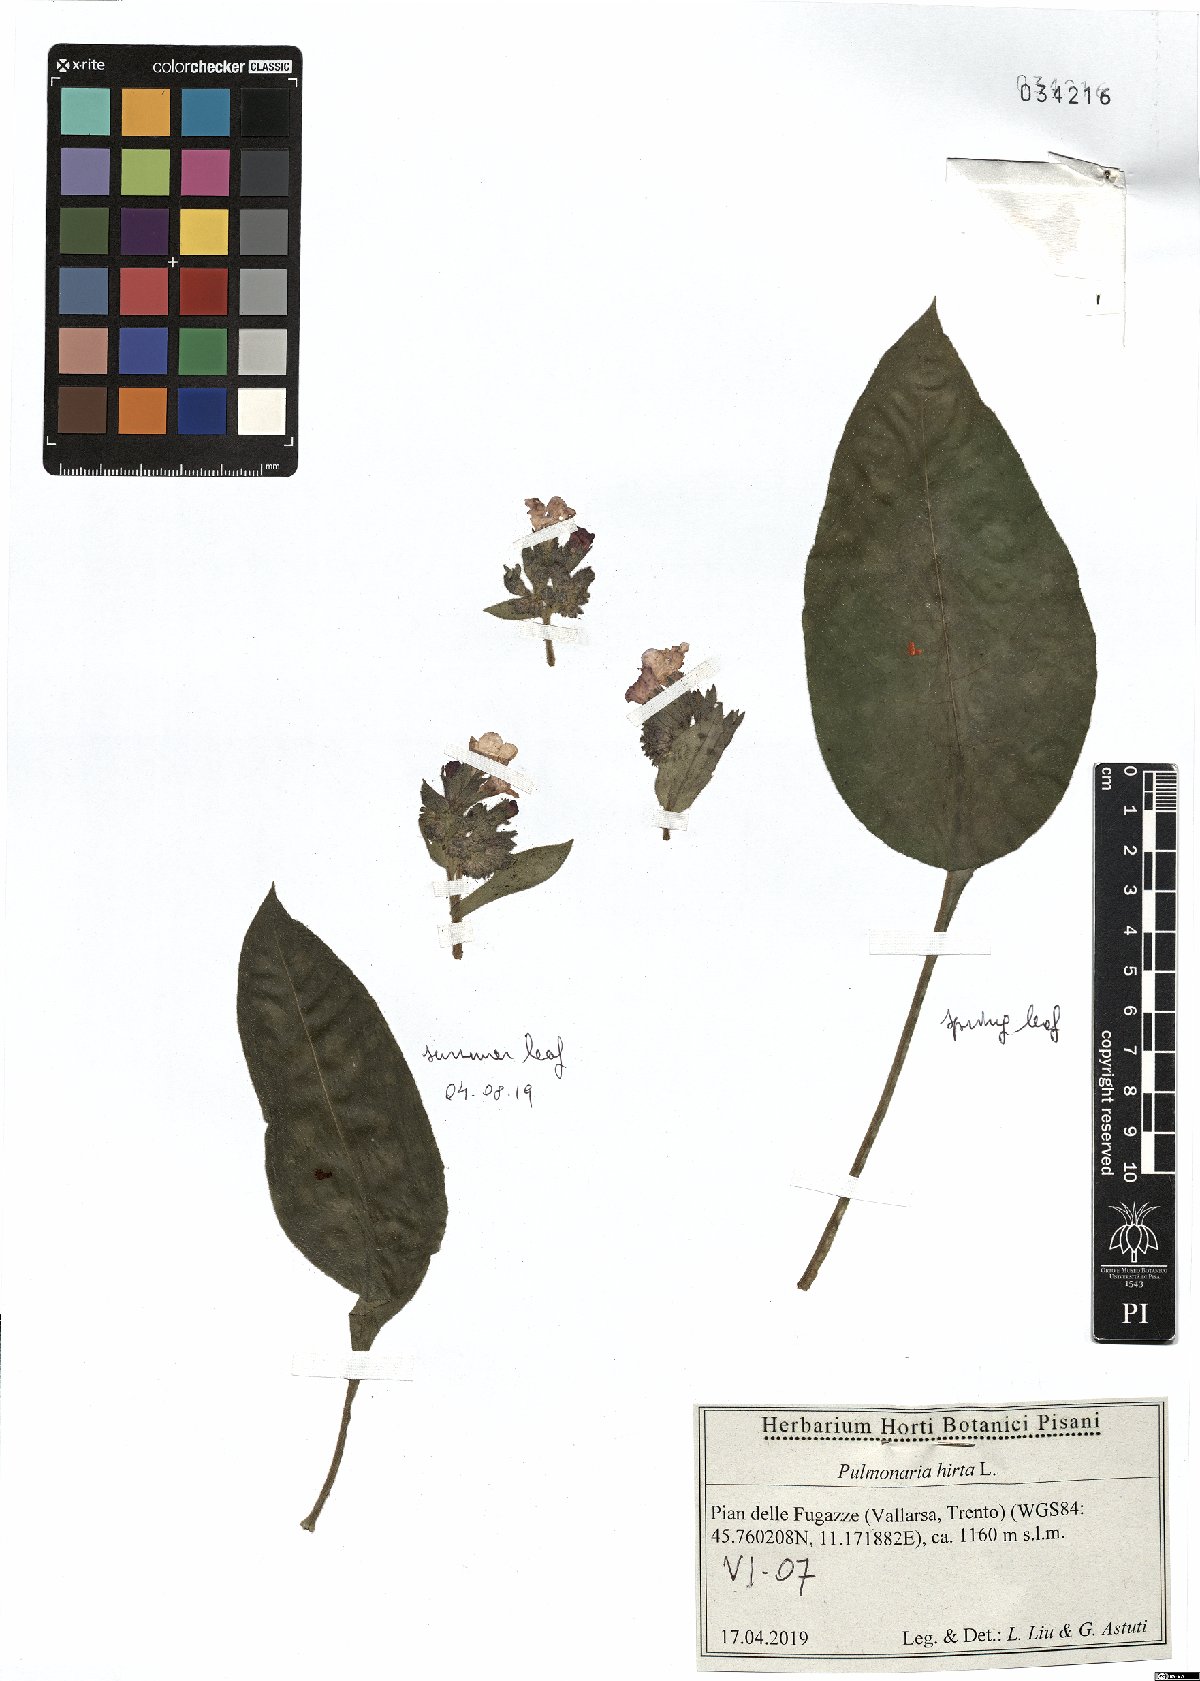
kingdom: Plantae
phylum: Tracheophyta
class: Magnoliopsida
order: Boraginales
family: Boraginaceae
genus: Pulmonaria
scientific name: Pulmonaria hirta
